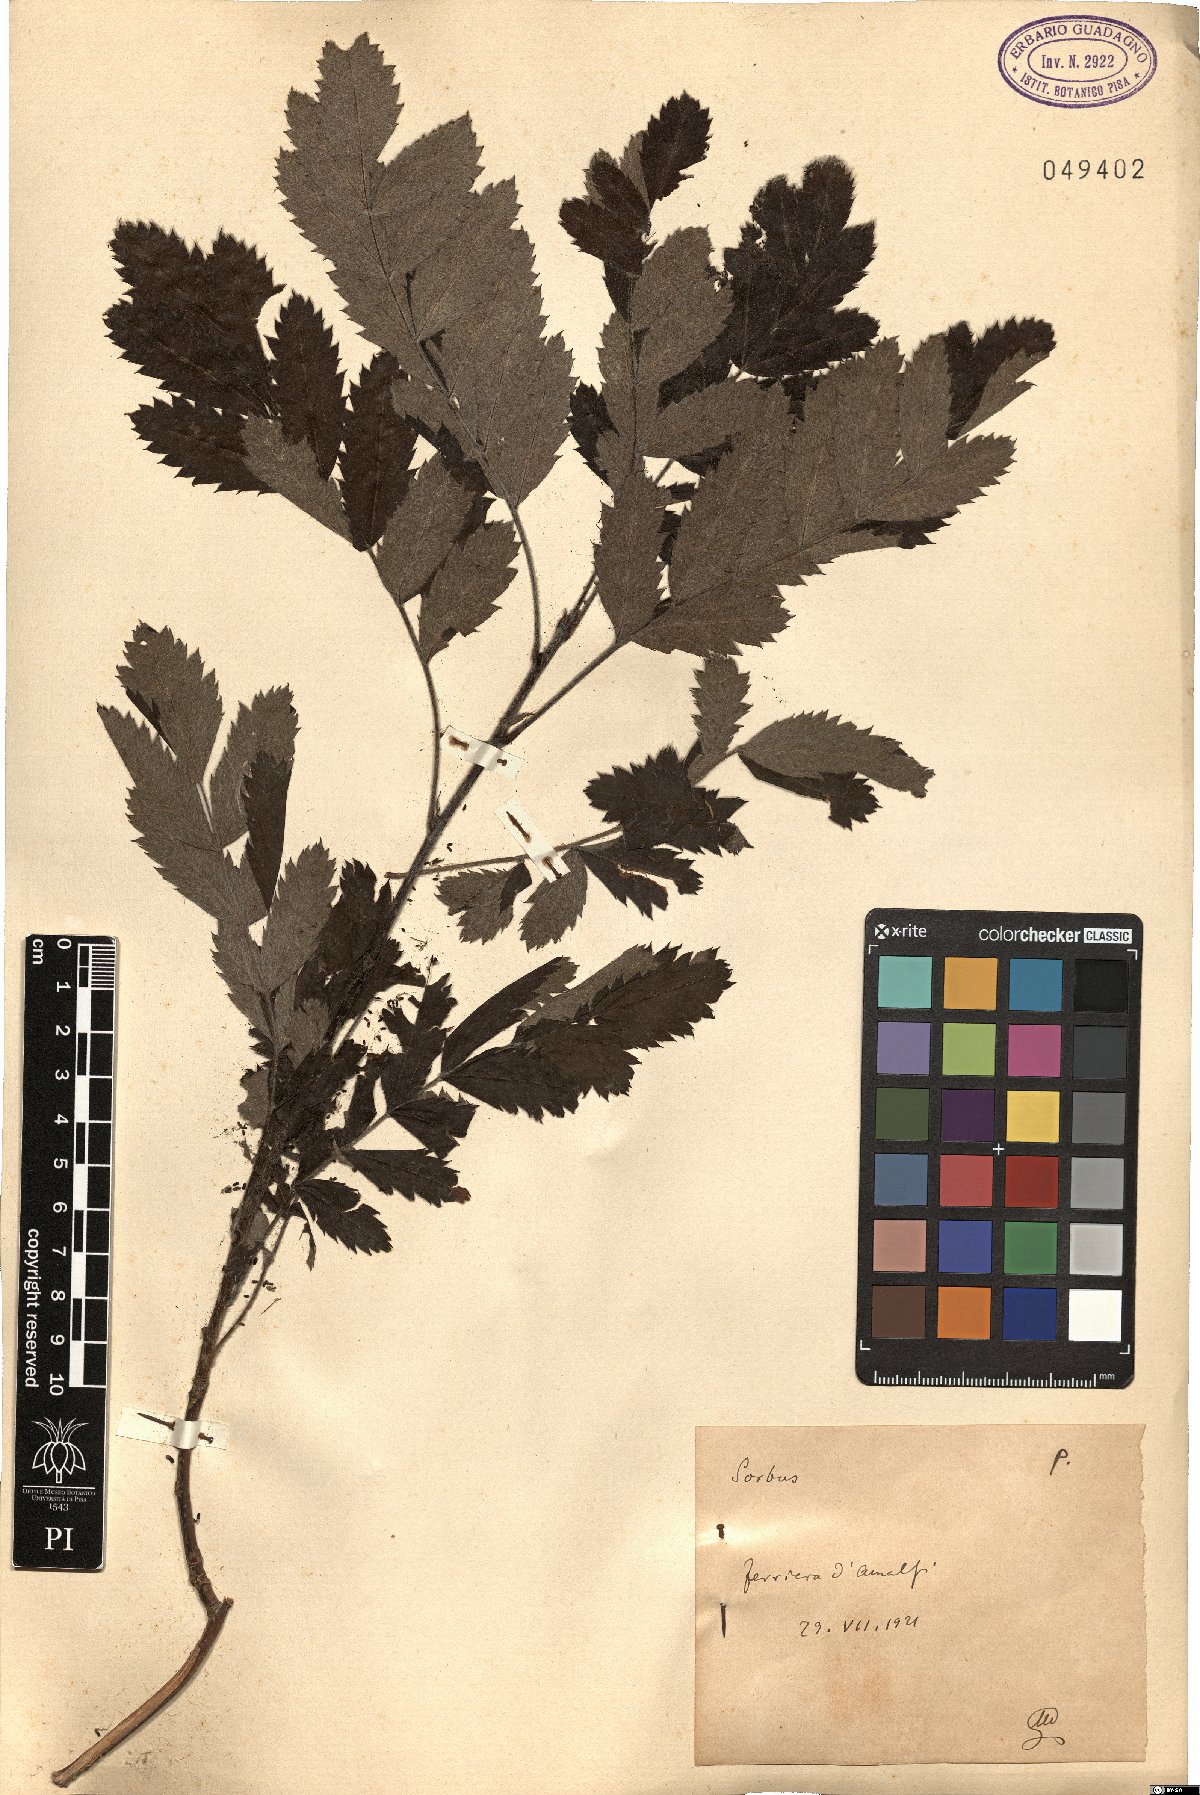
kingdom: Plantae
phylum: Tracheophyta
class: Magnoliopsida
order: Rosales
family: Rosaceae
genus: Sorbus
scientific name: Sorbus
